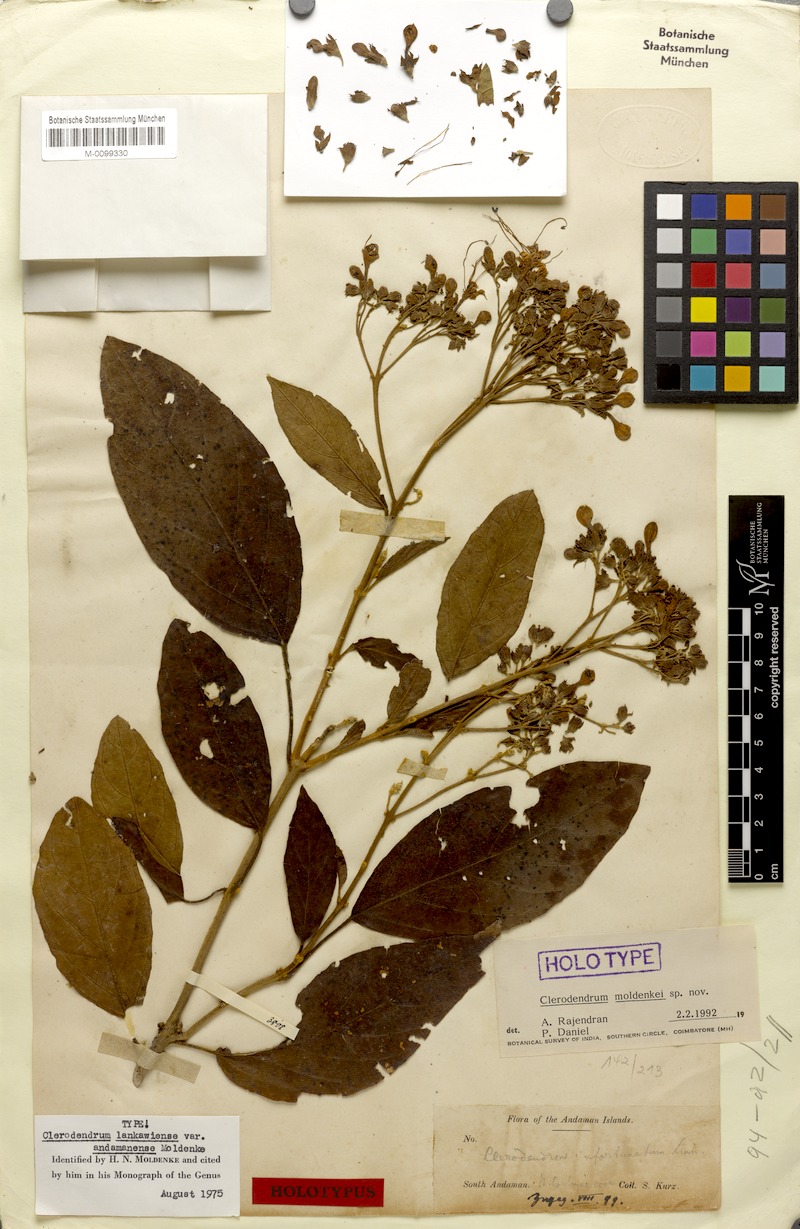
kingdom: Plantae
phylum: Tracheophyta
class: Magnoliopsida
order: Lamiales
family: Lamiaceae
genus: Clerodendrum
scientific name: Clerodendrum lankawiense
